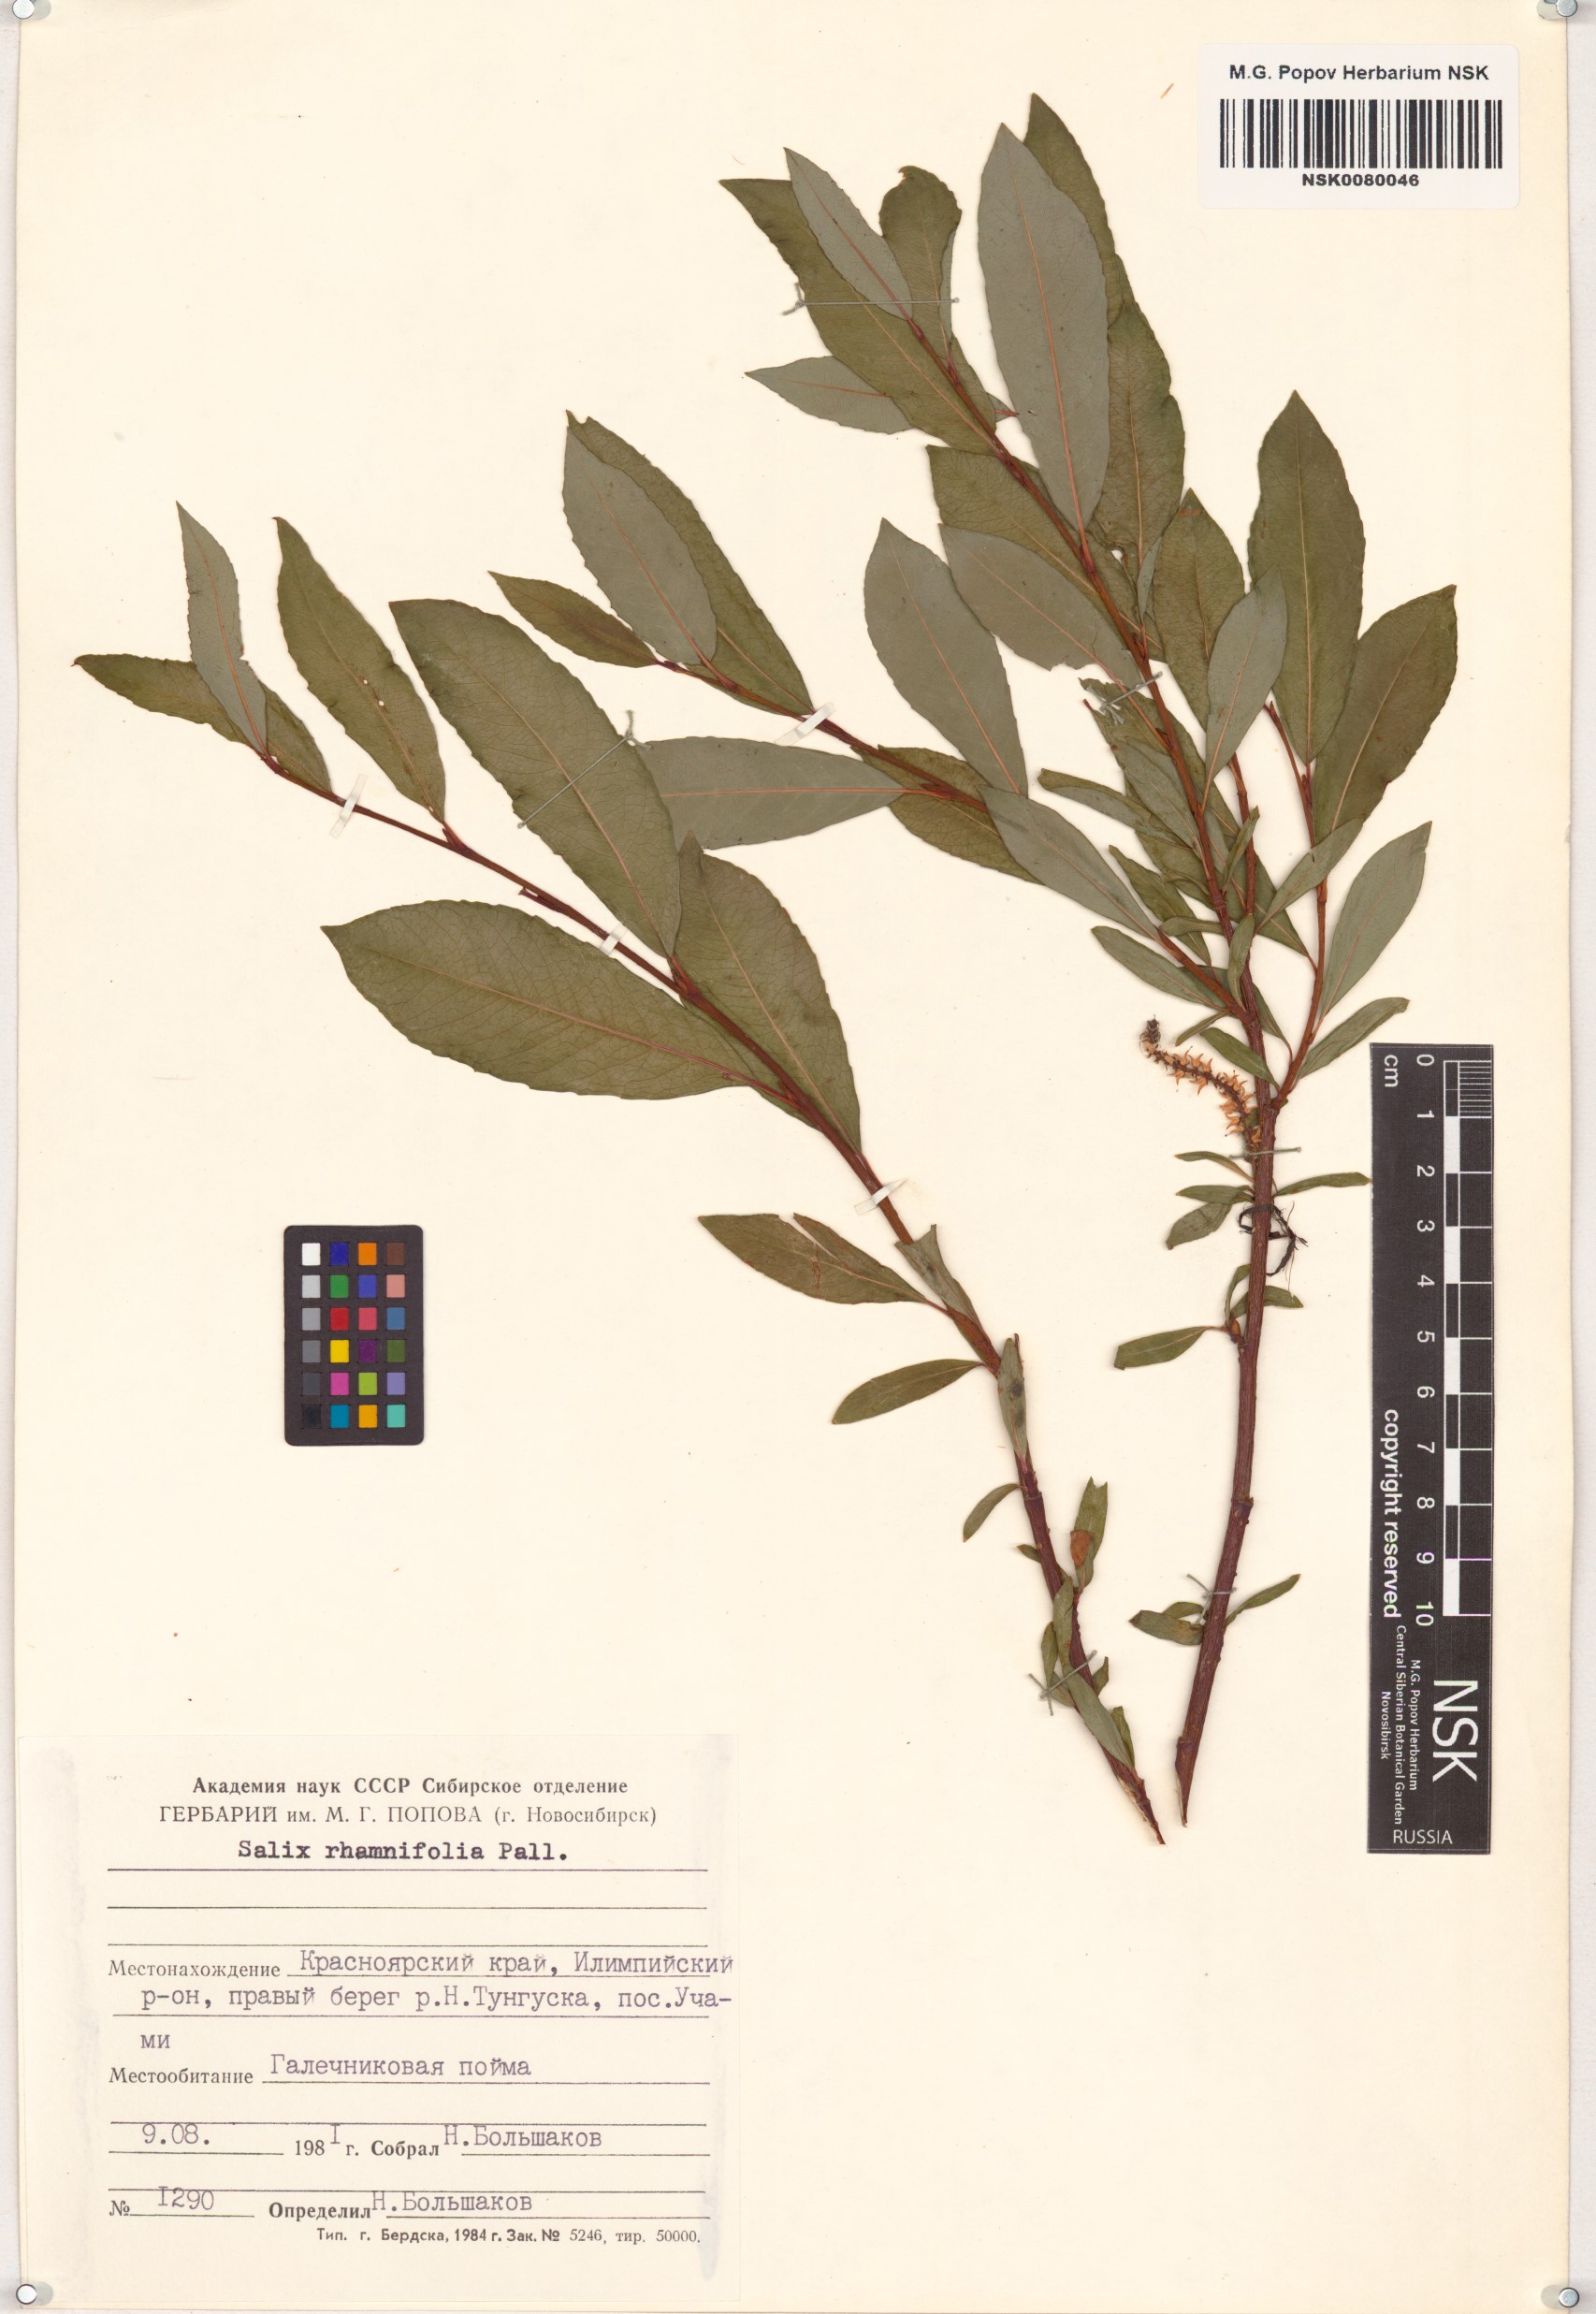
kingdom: Plantae
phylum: Tracheophyta
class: Magnoliopsida
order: Malpighiales
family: Salicaceae
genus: Salix
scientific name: Salix rhamnifolia
